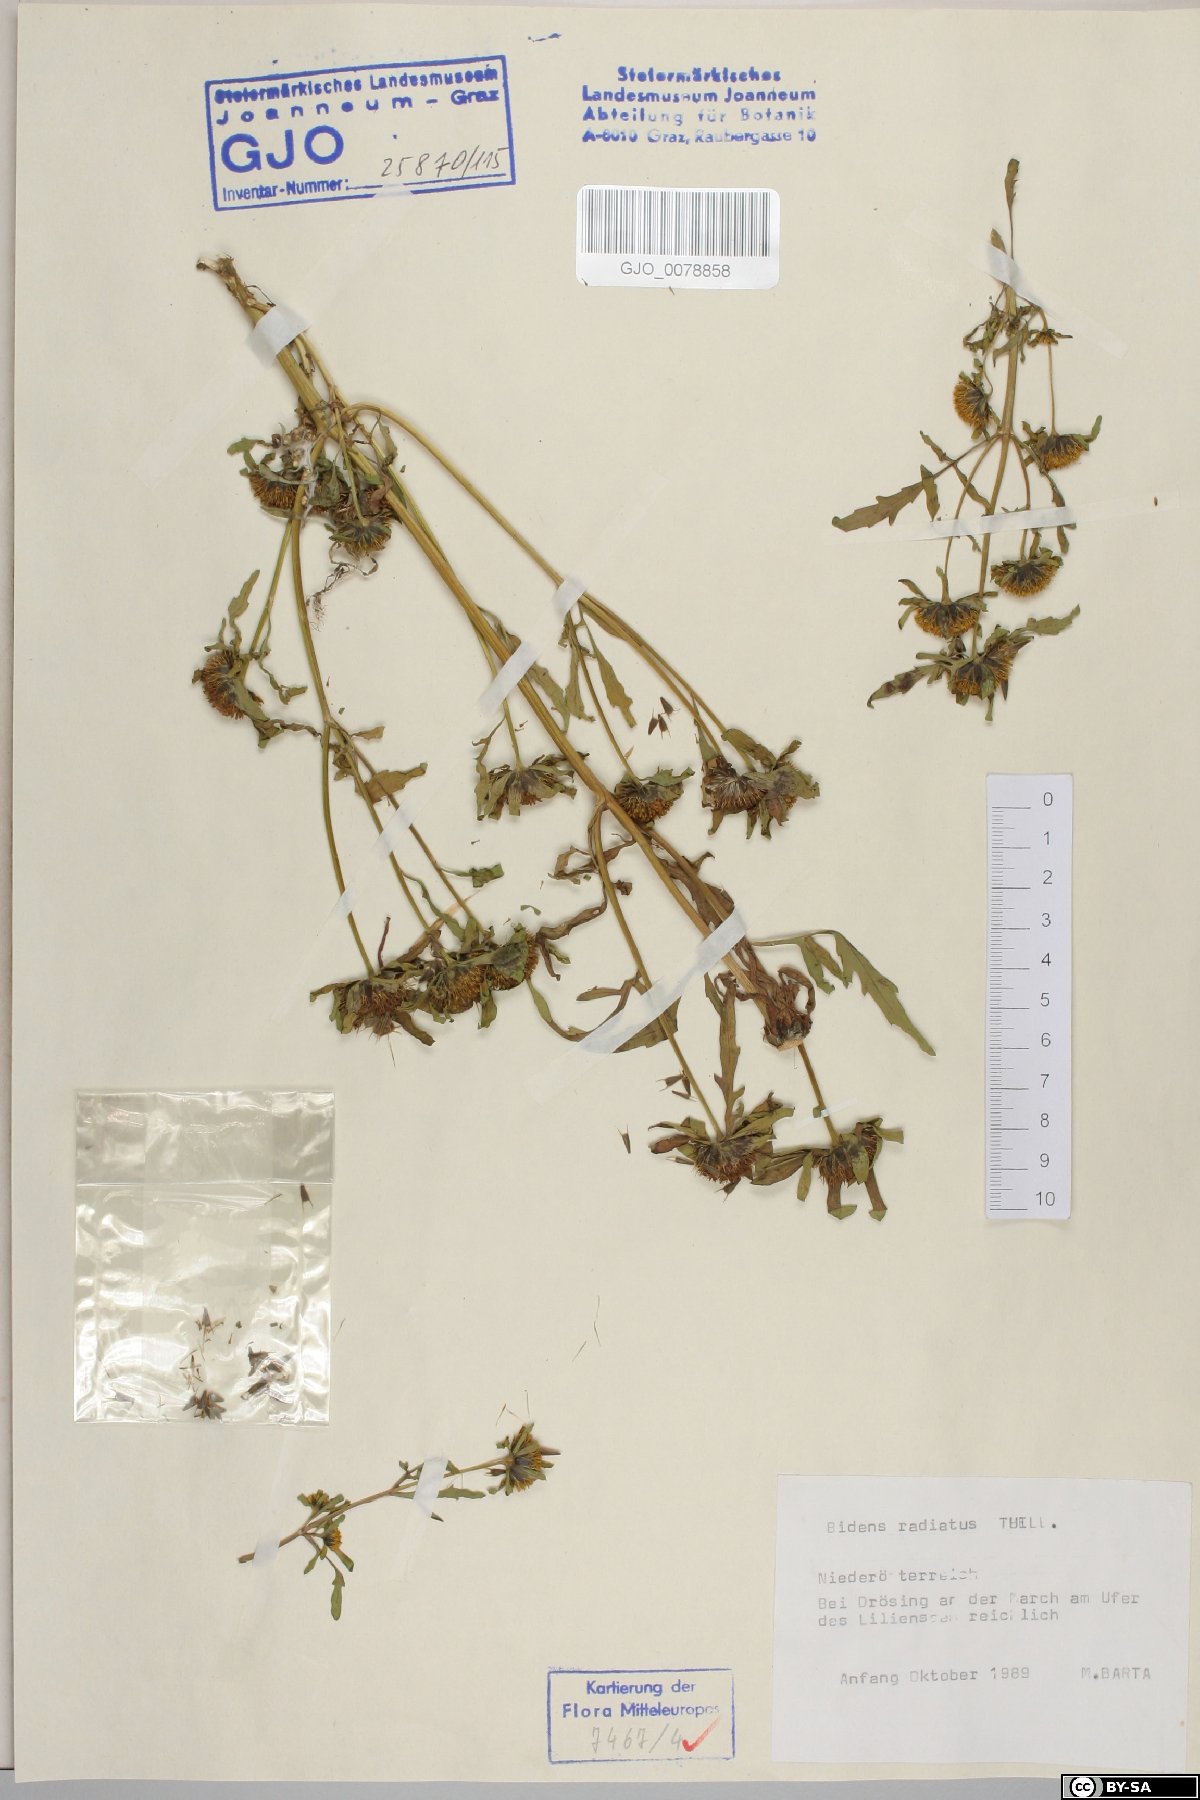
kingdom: Plantae
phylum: Tracheophyta
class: Magnoliopsida
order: Asterales
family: Asteraceae
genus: Bidens
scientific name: Bidens radiata
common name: Radiating bur-marigold
